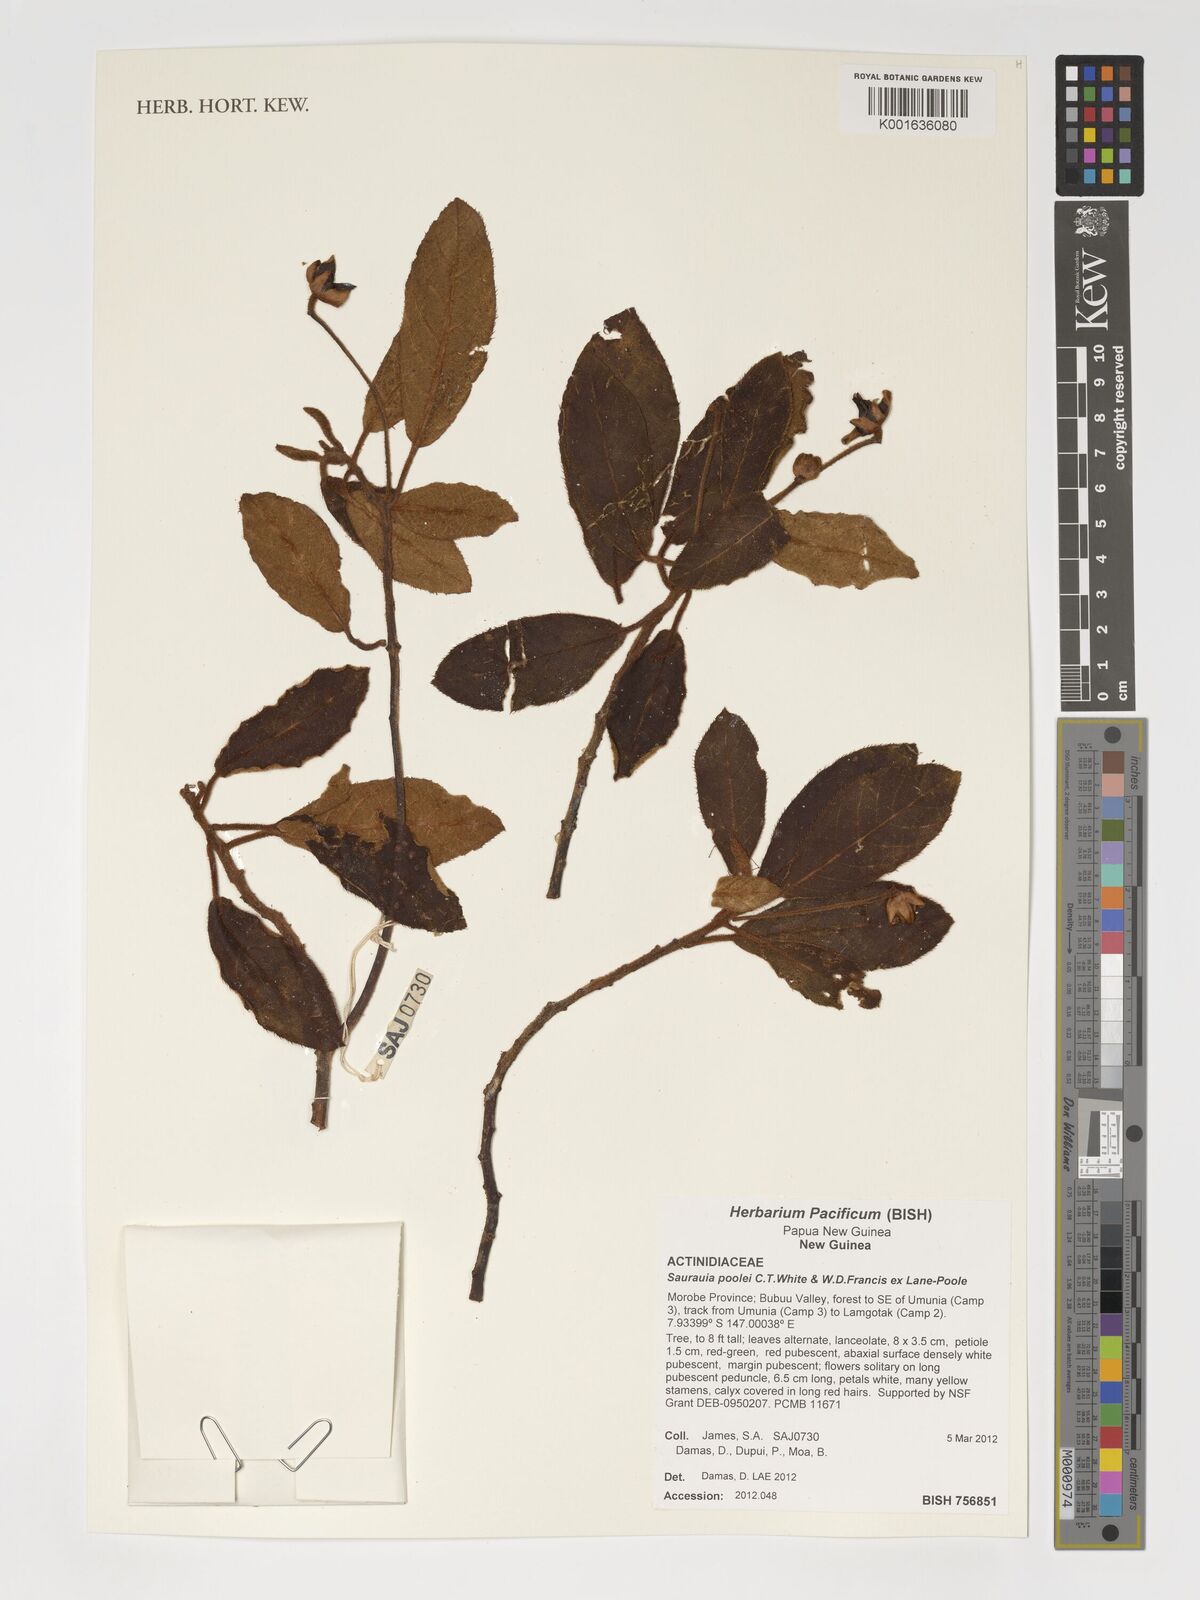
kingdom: Plantae
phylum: Tracheophyta
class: Magnoliopsida
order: Ericales
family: Actinidiaceae
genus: Saurauia
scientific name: Saurauia poolei
